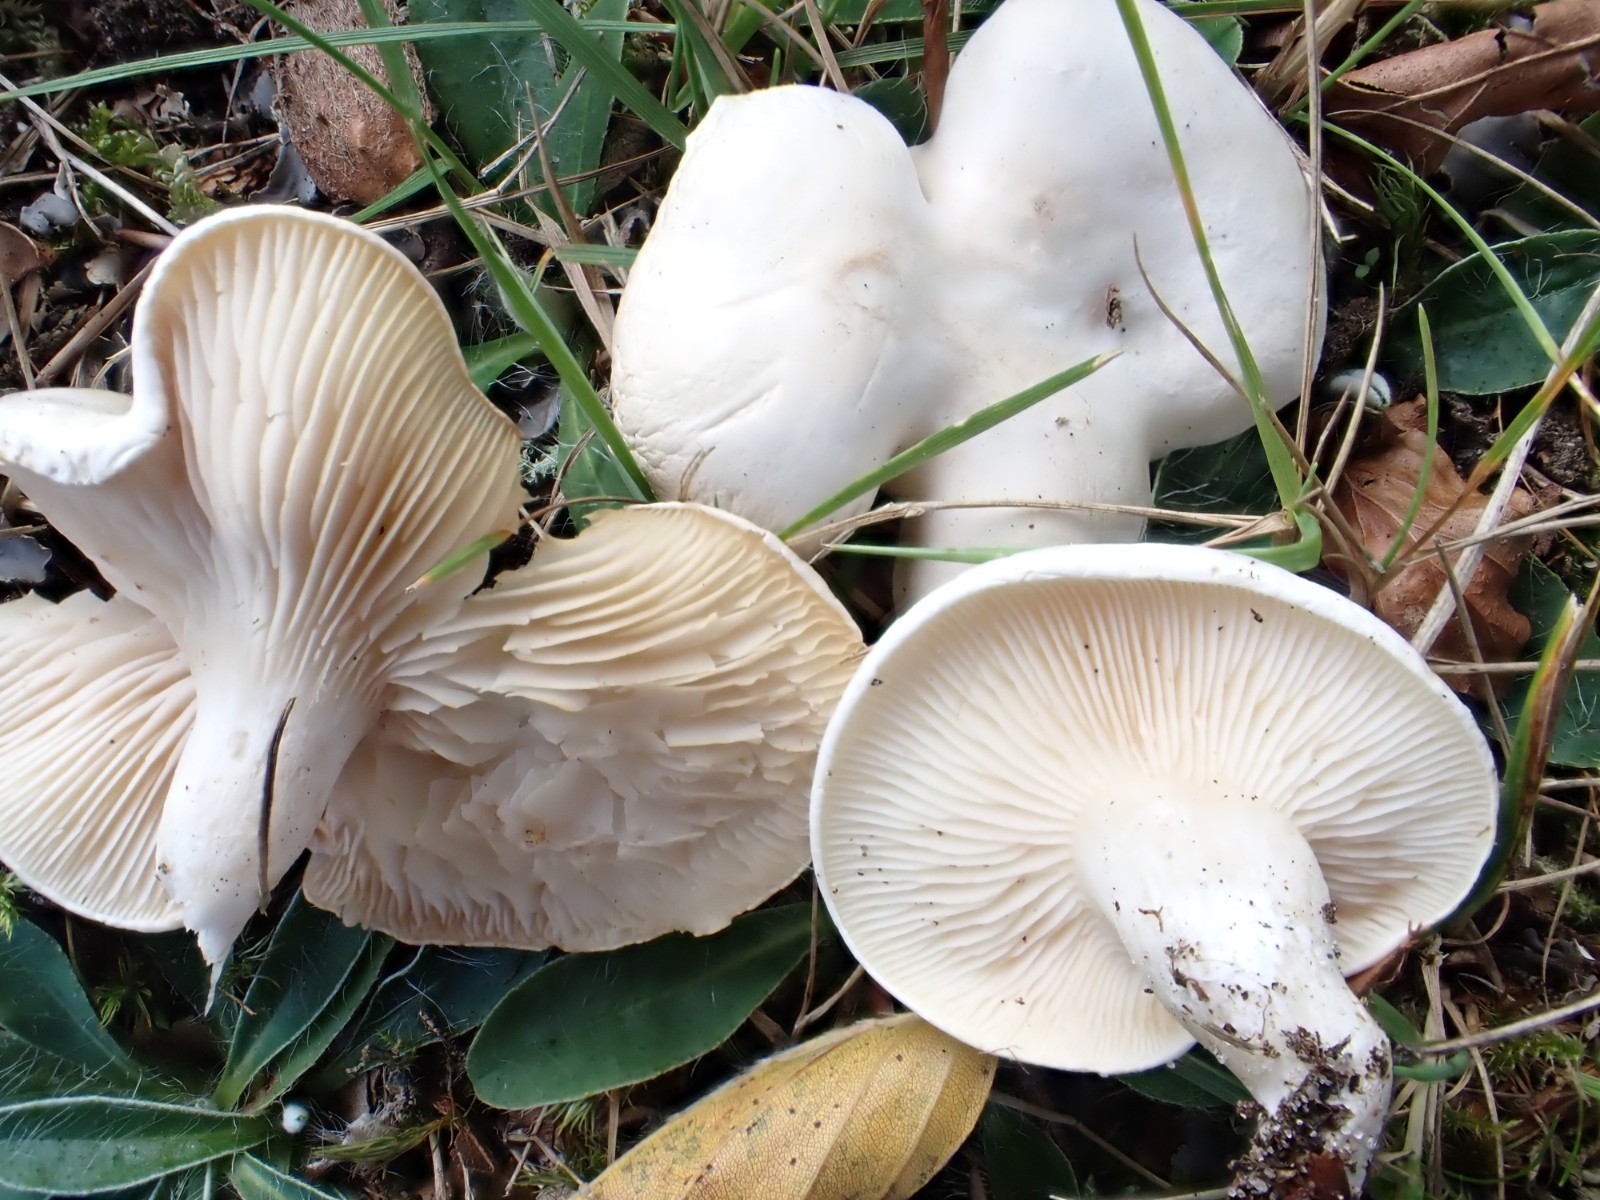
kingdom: Fungi
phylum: Basidiomycota
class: Agaricomycetes
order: Agaricales
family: Entolomataceae
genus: Clitopilus
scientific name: Clitopilus prunulus
